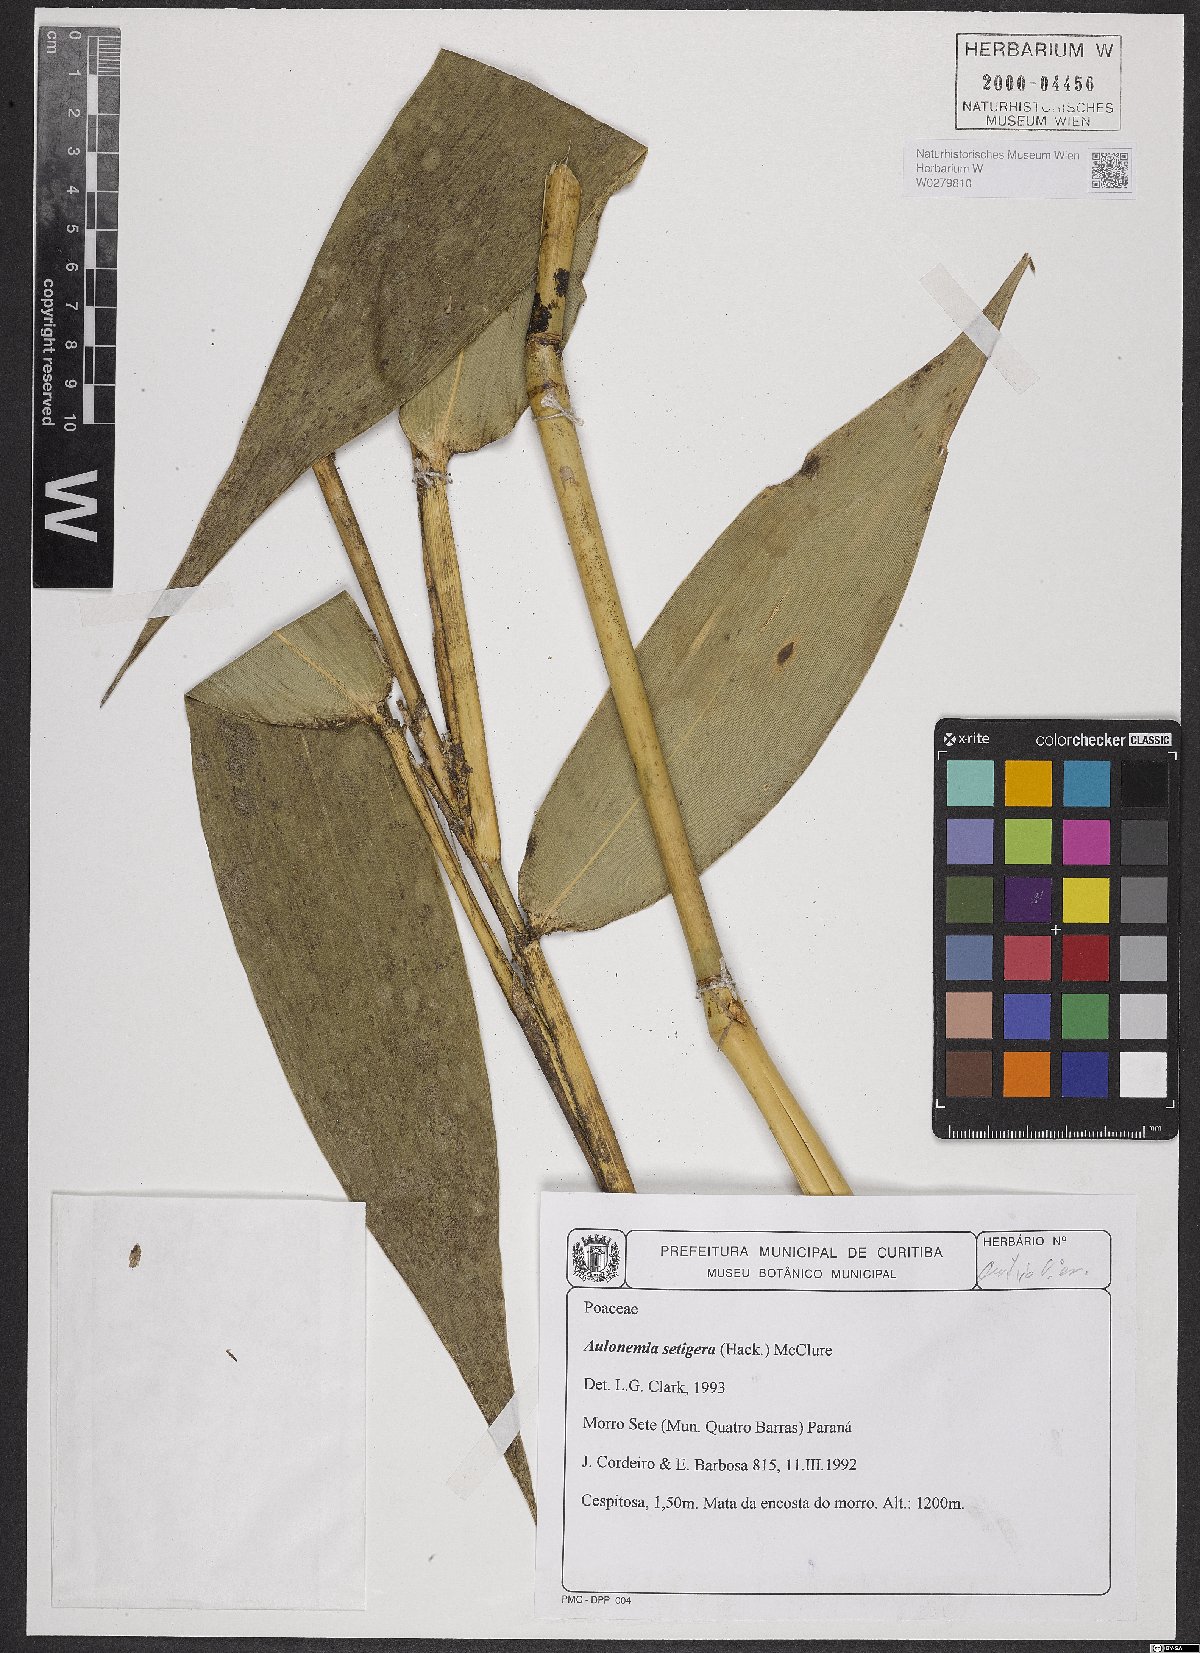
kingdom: Plantae
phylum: Tracheophyta
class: Liliopsida
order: Poales
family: Poaceae
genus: Aulonemia
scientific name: Aulonemia setigera
